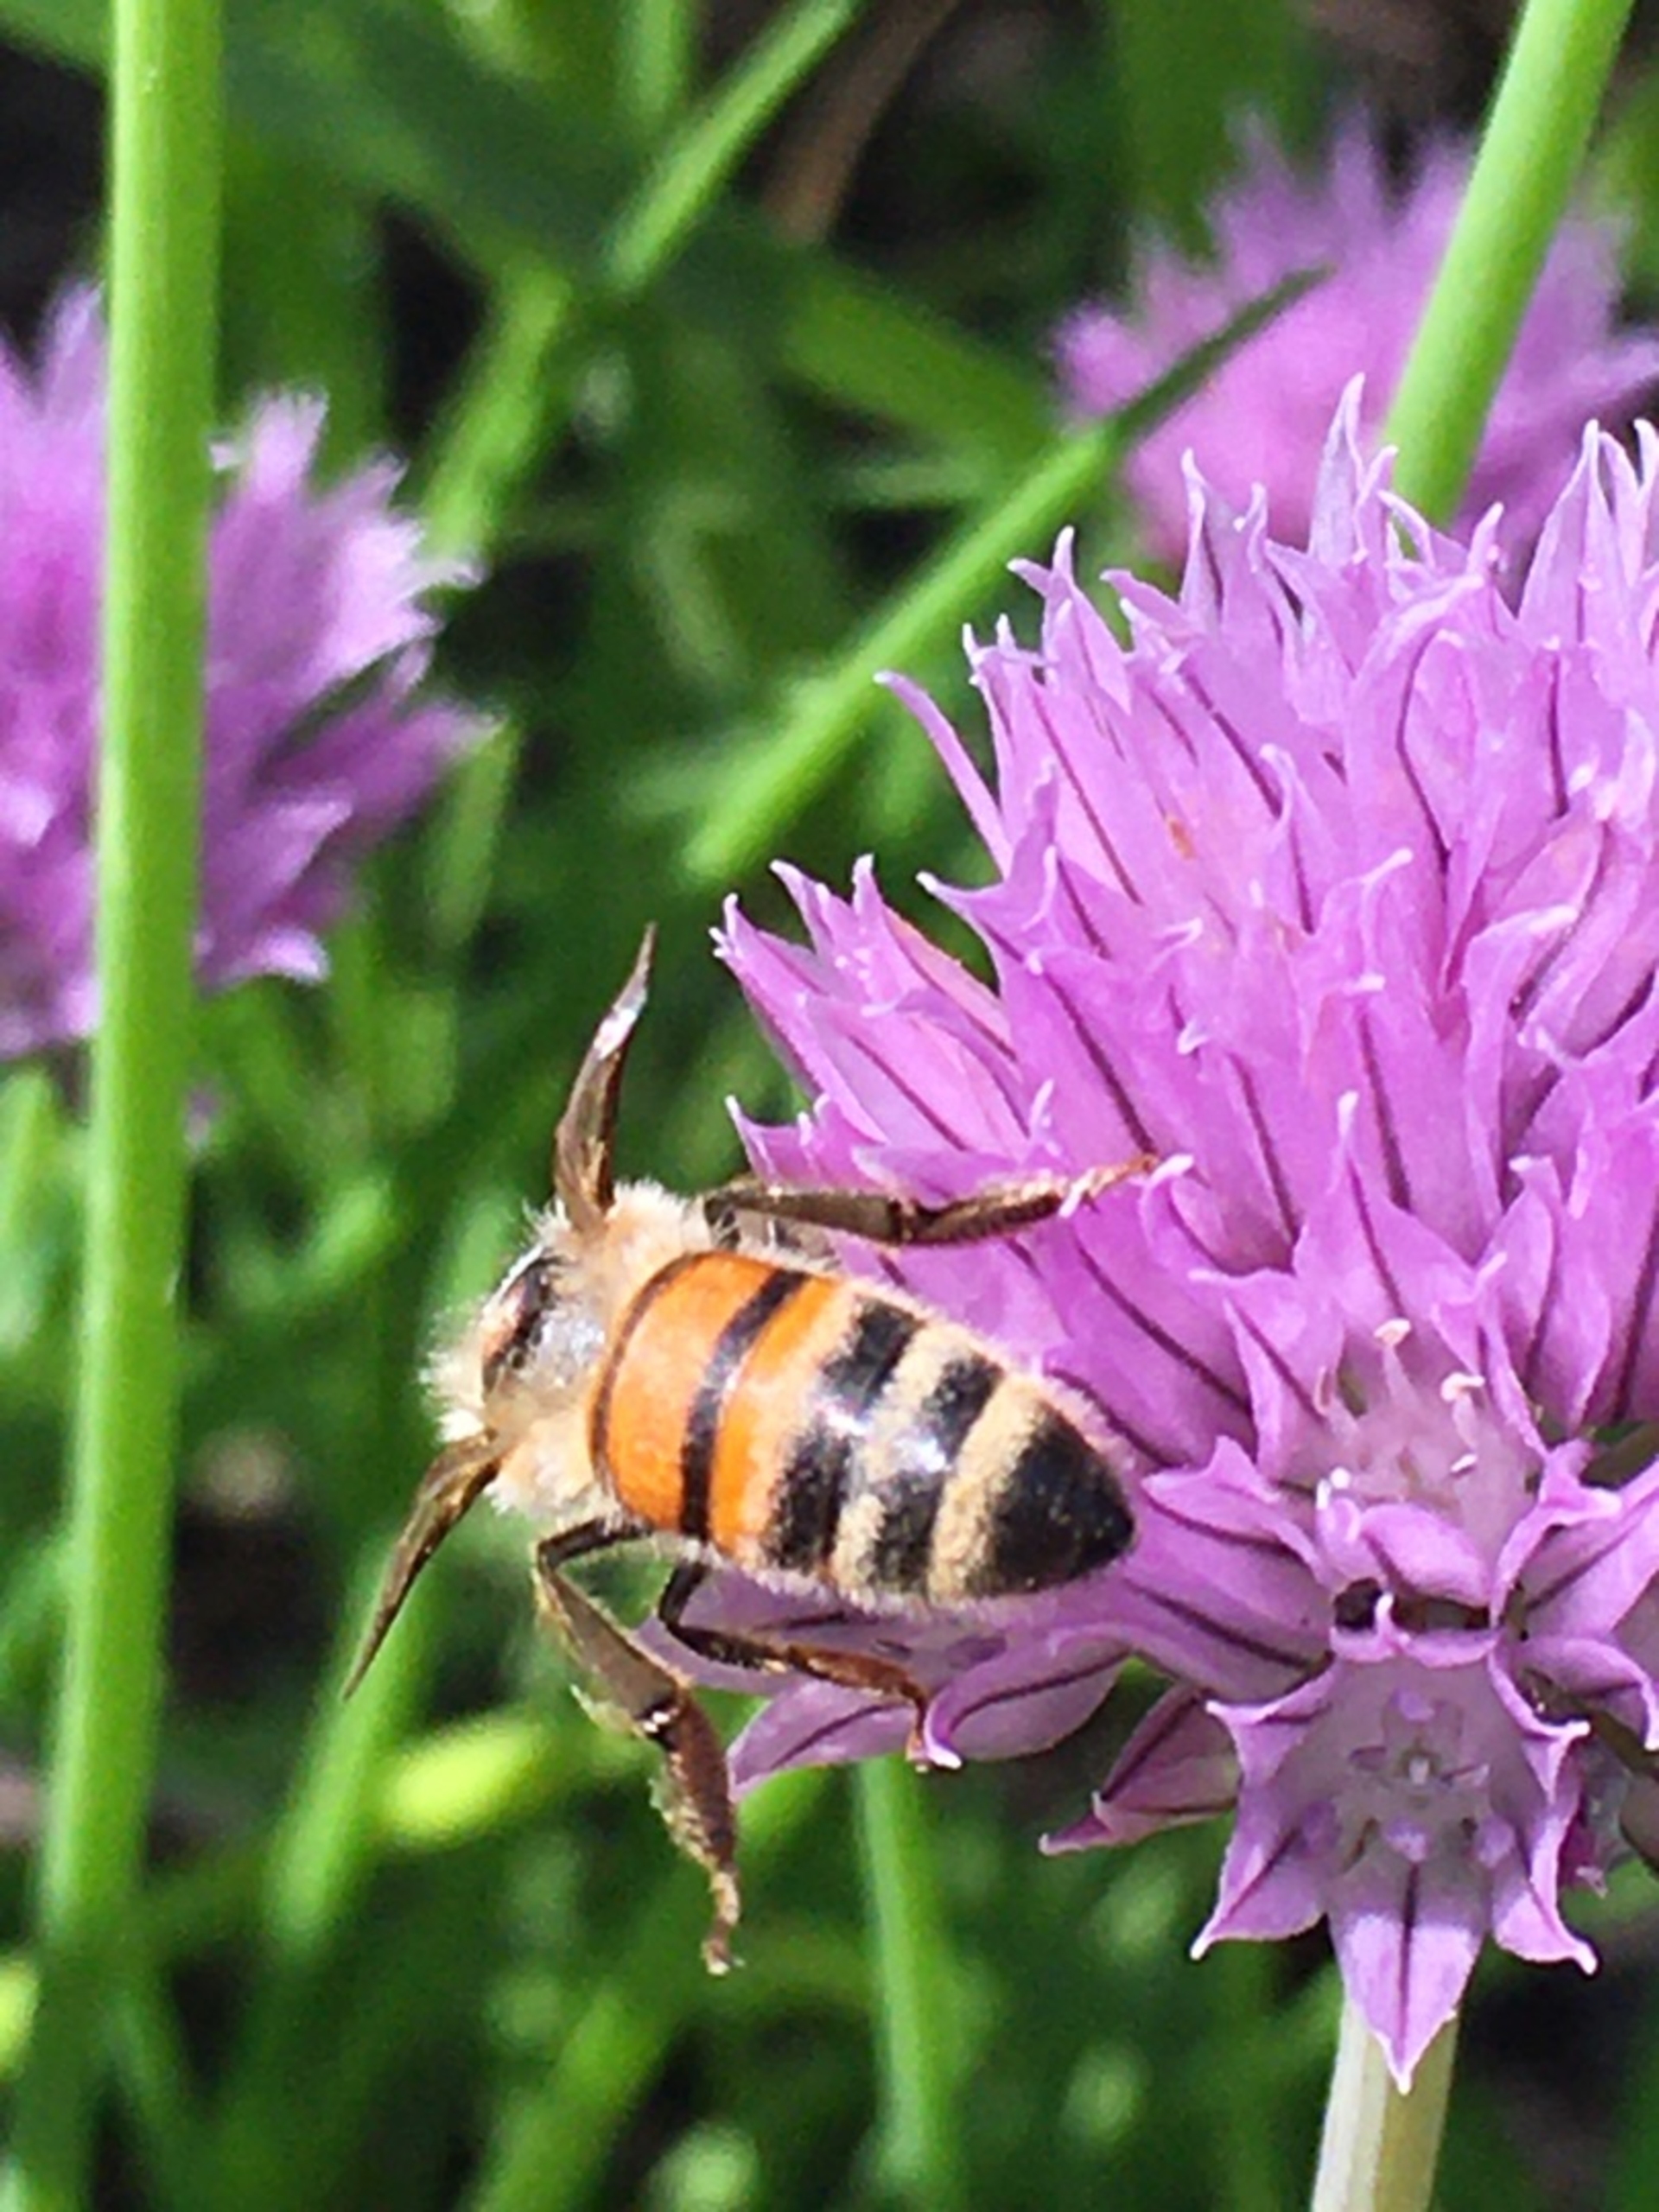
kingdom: Animalia
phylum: Arthropoda
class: Insecta
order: Hymenoptera
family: Apidae
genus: Apis
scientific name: Apis mellifera
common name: Honningbi
